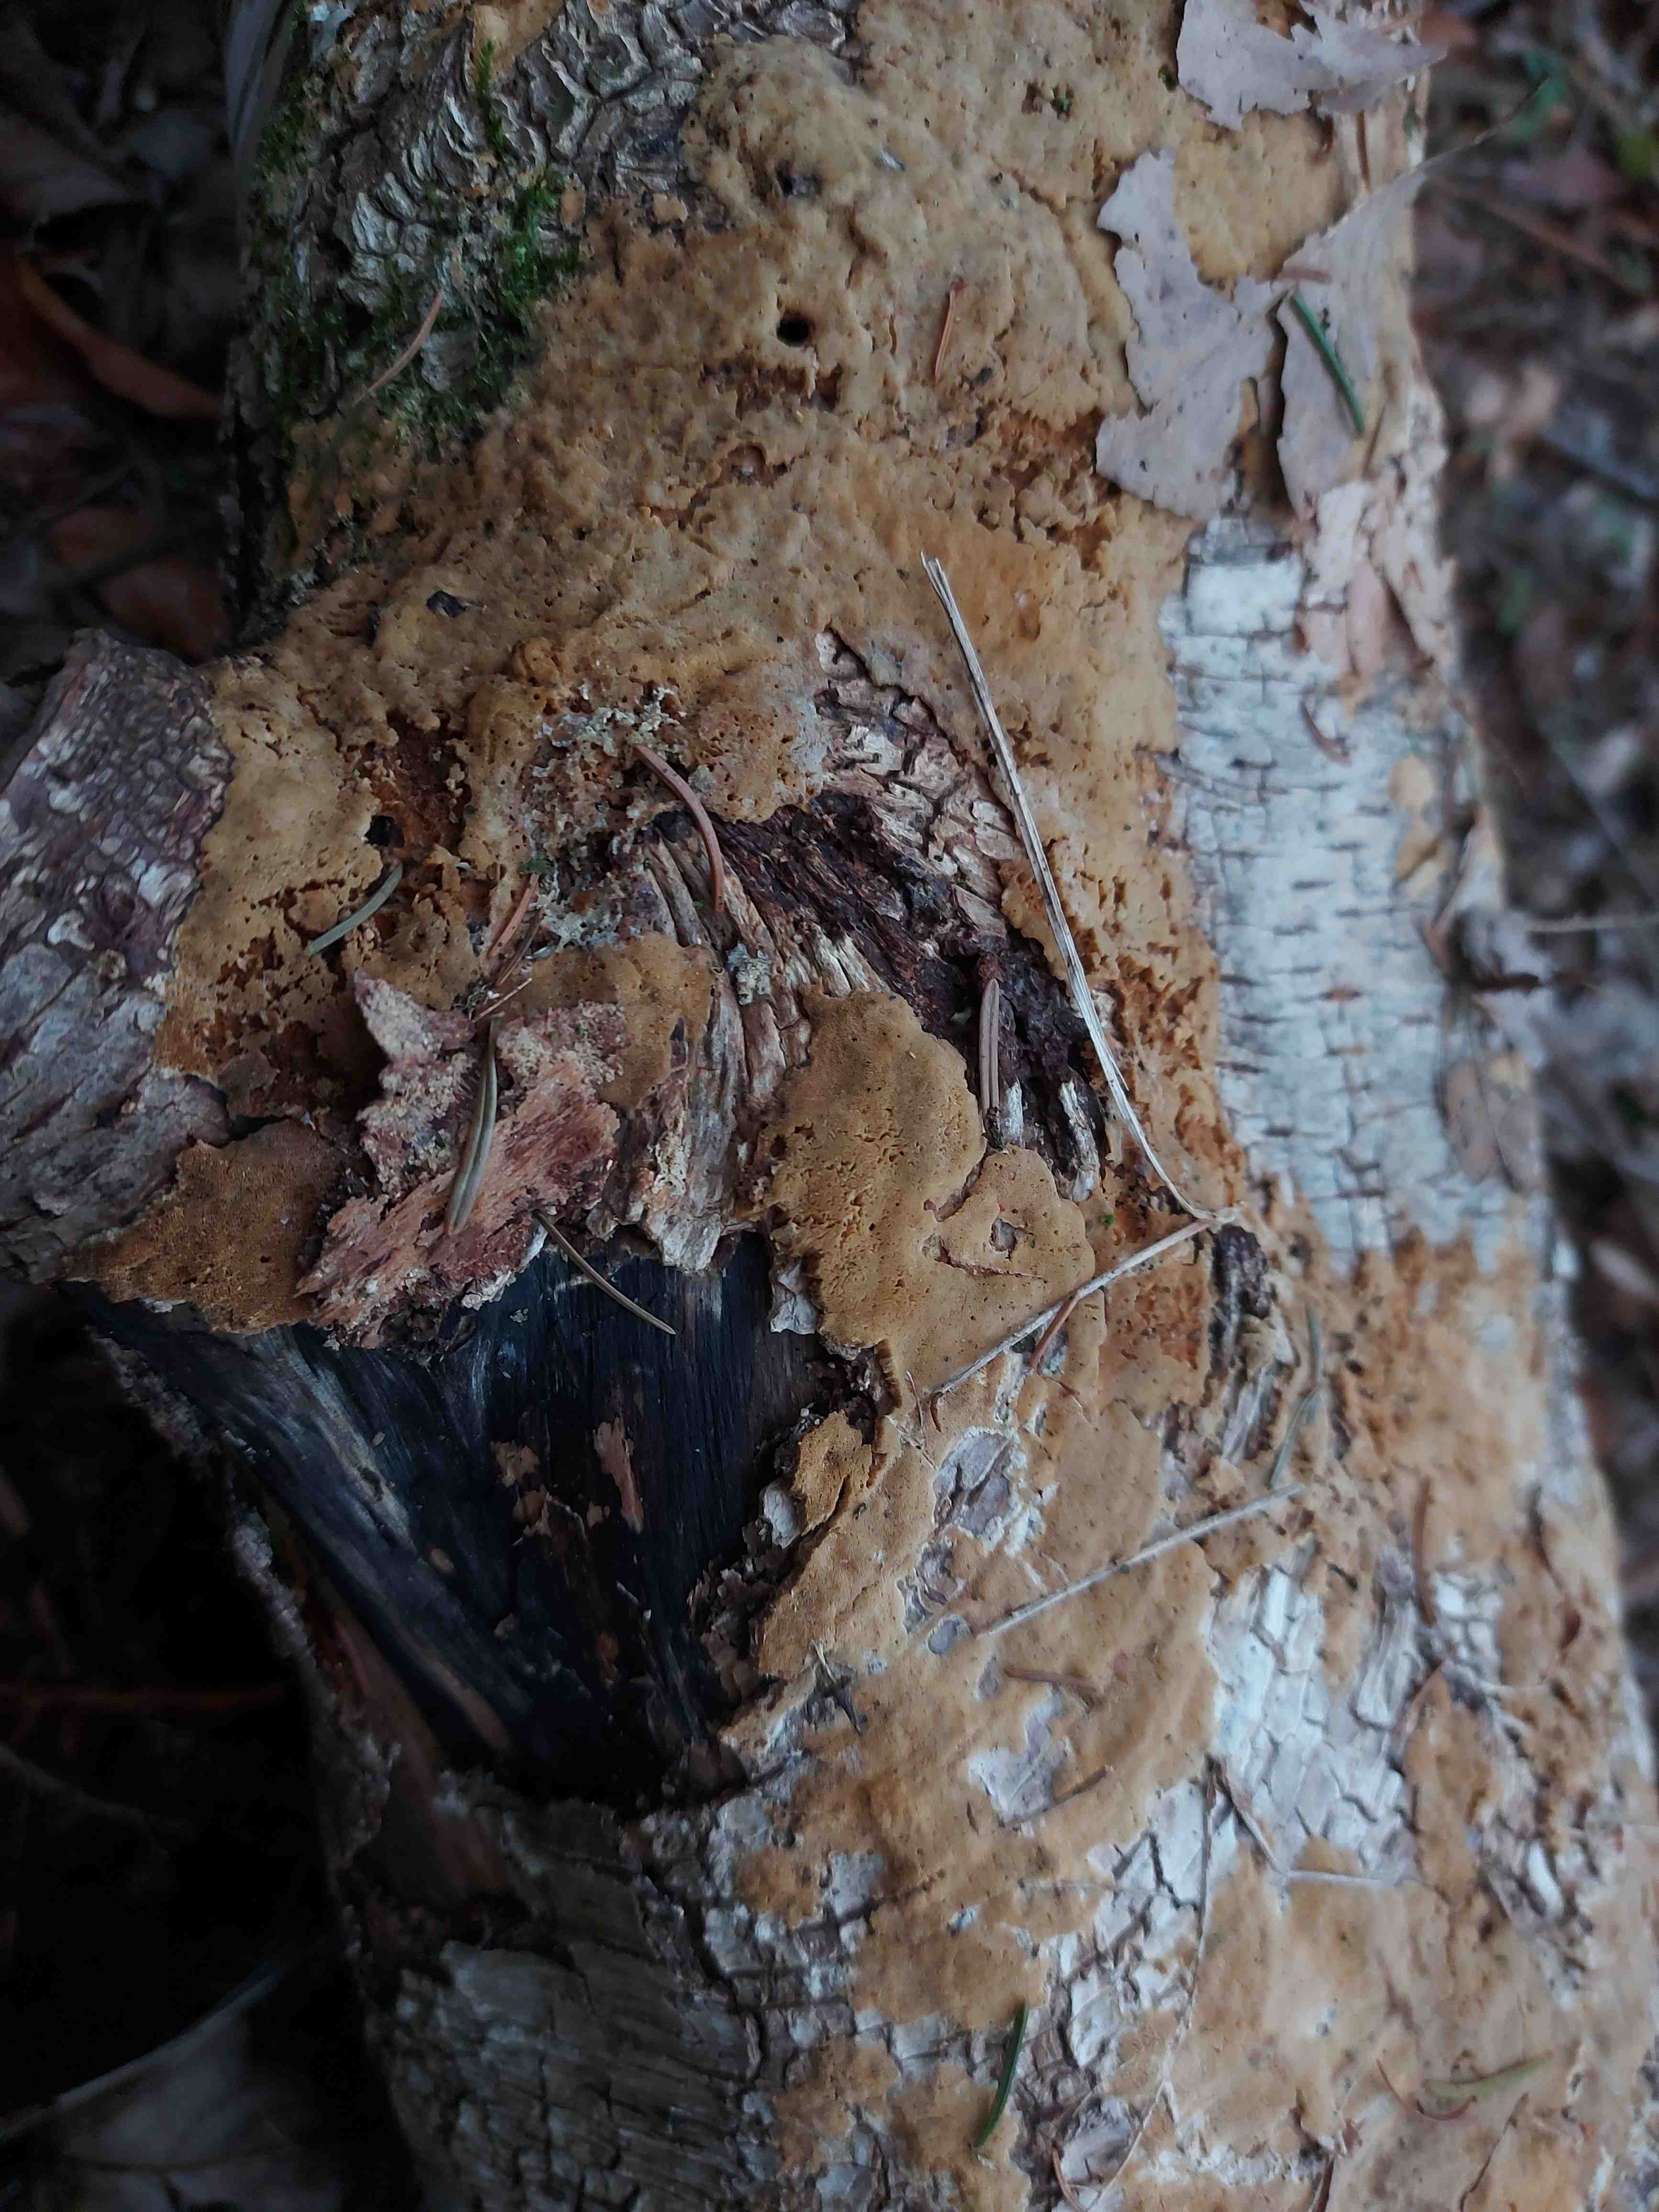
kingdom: Fungi
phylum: Basidiomycota
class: Agaricomycetes
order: Polyporales
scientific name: Polyporales
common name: poresvampordenen
